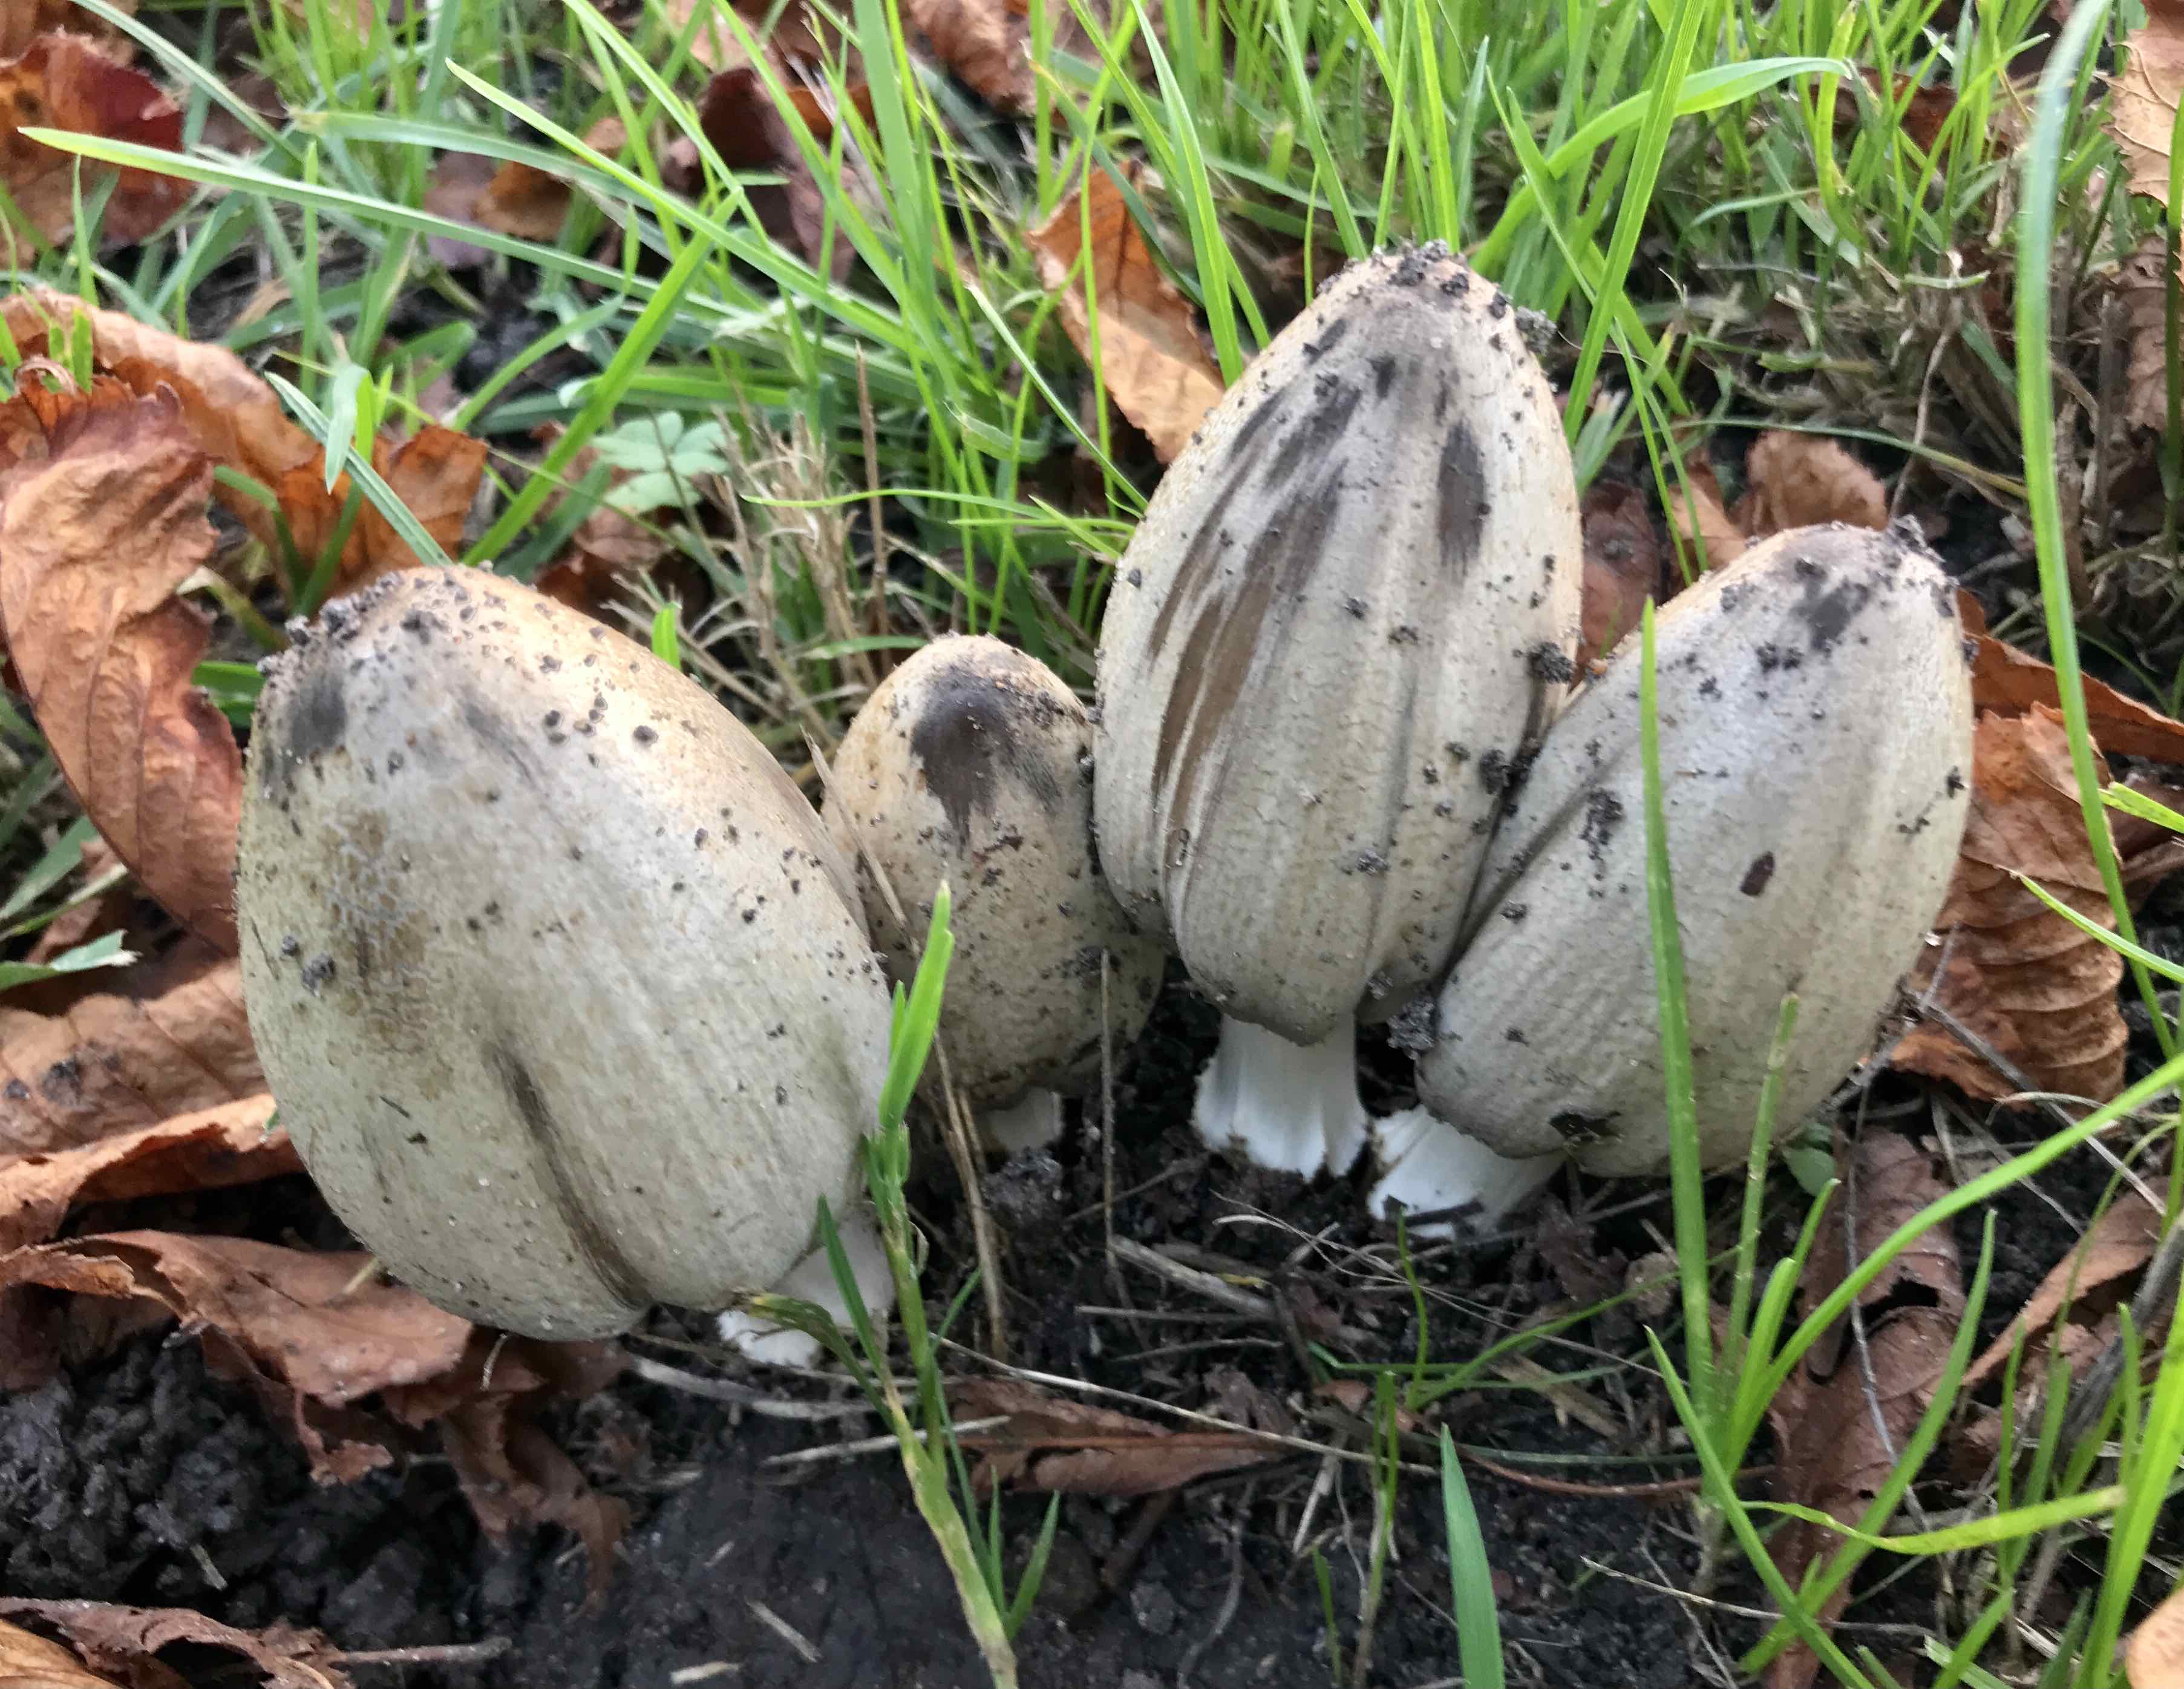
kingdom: Fungi
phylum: Basidiomycota
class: Agaricomycetes
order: Agaricales
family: Psathyrellaceae
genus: Coprinopsis
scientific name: Coprinopsis atramentaria
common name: almindelig blækhat
